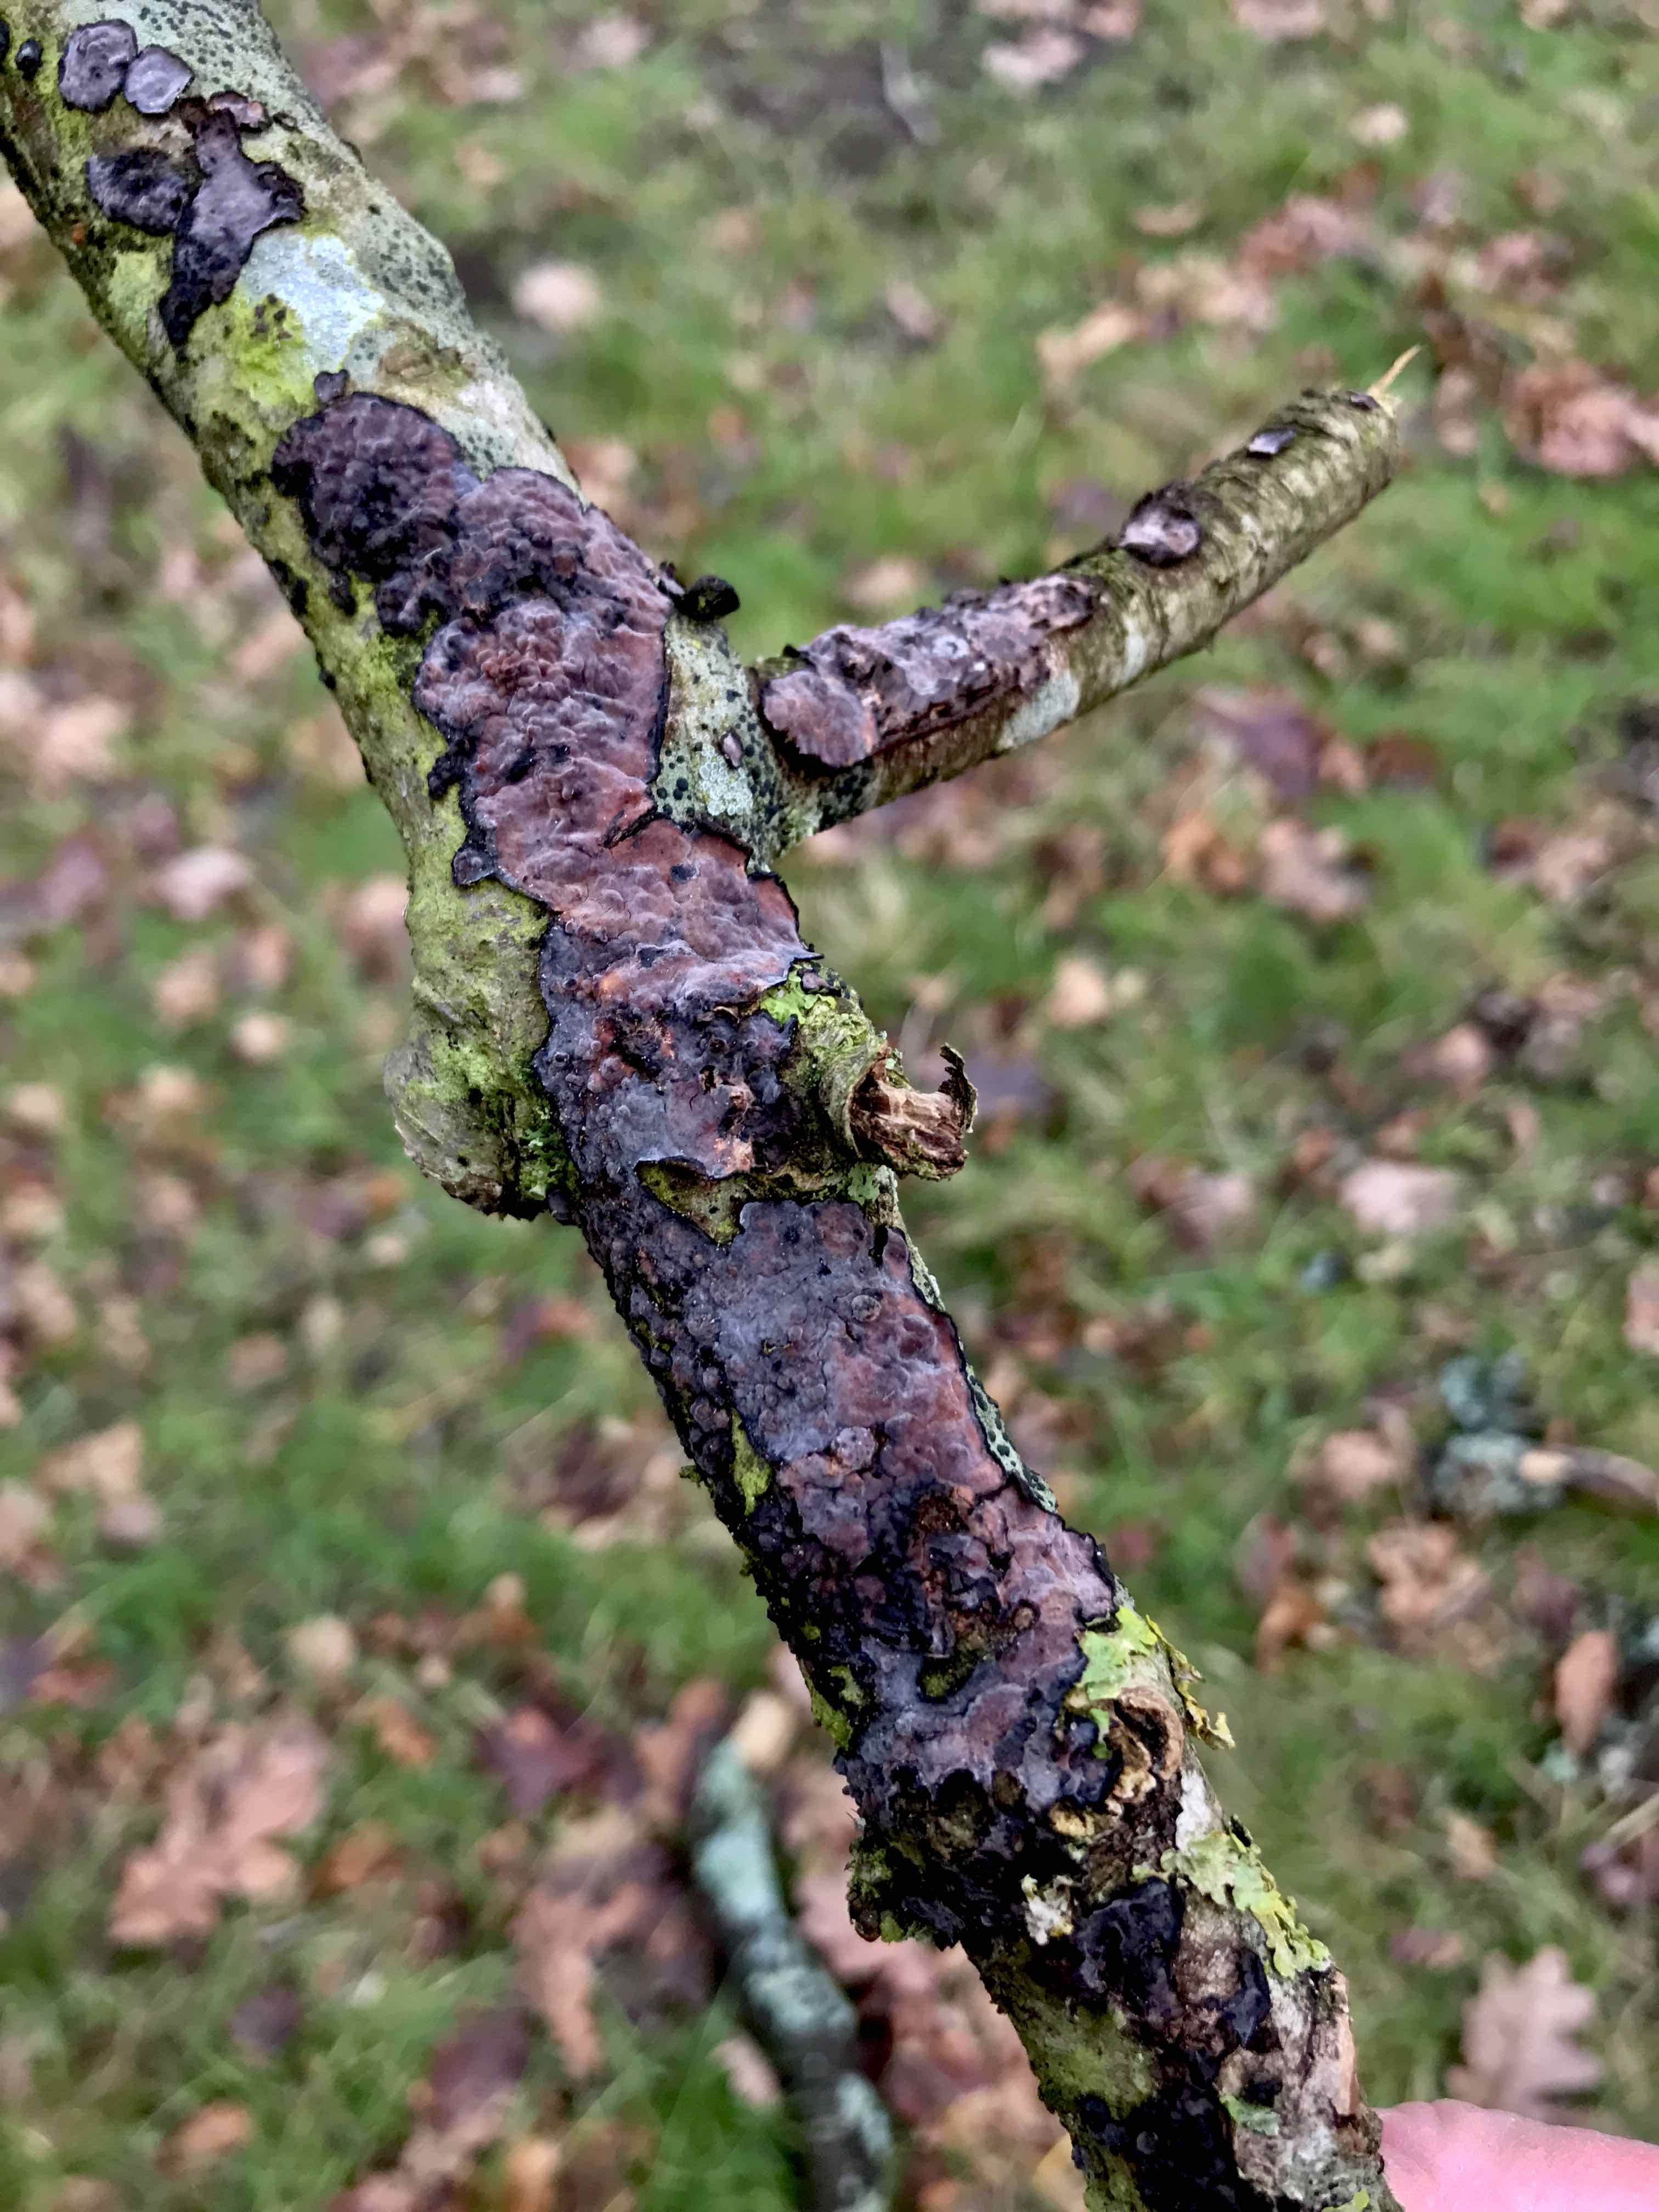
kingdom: Fungi
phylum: Basidiomycota
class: Agaricomycetes
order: Russulales
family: Peniophoraceae
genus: Peniophora
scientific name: Peniophora quercina
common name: ege-voksskind
